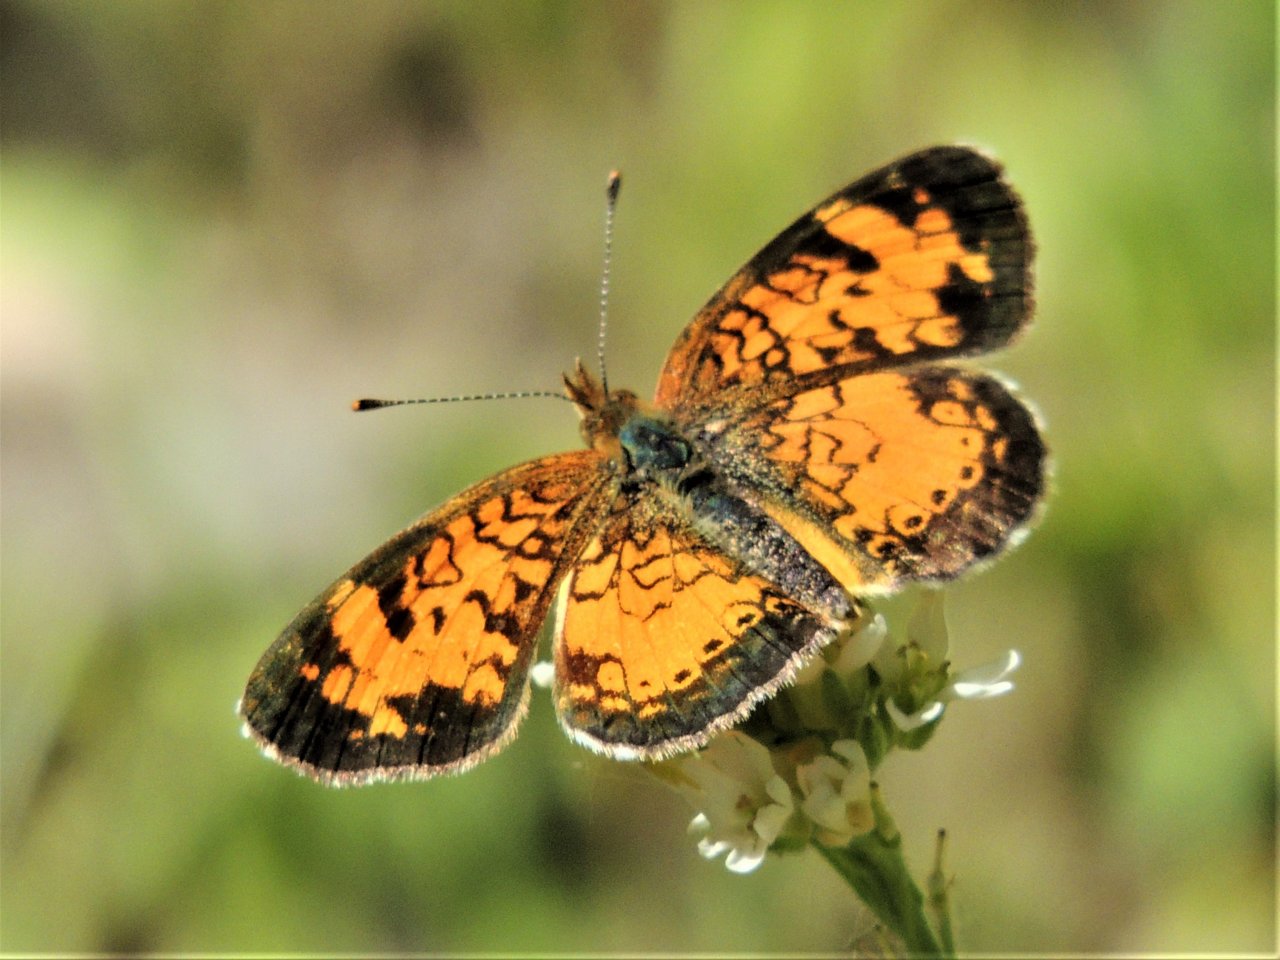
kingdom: Animalia
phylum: Arthropoda
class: Insecta
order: Lepidoptera
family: Nymphalidae
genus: Phyciodes
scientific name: Phyciodes tharos
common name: Northern Crescent
